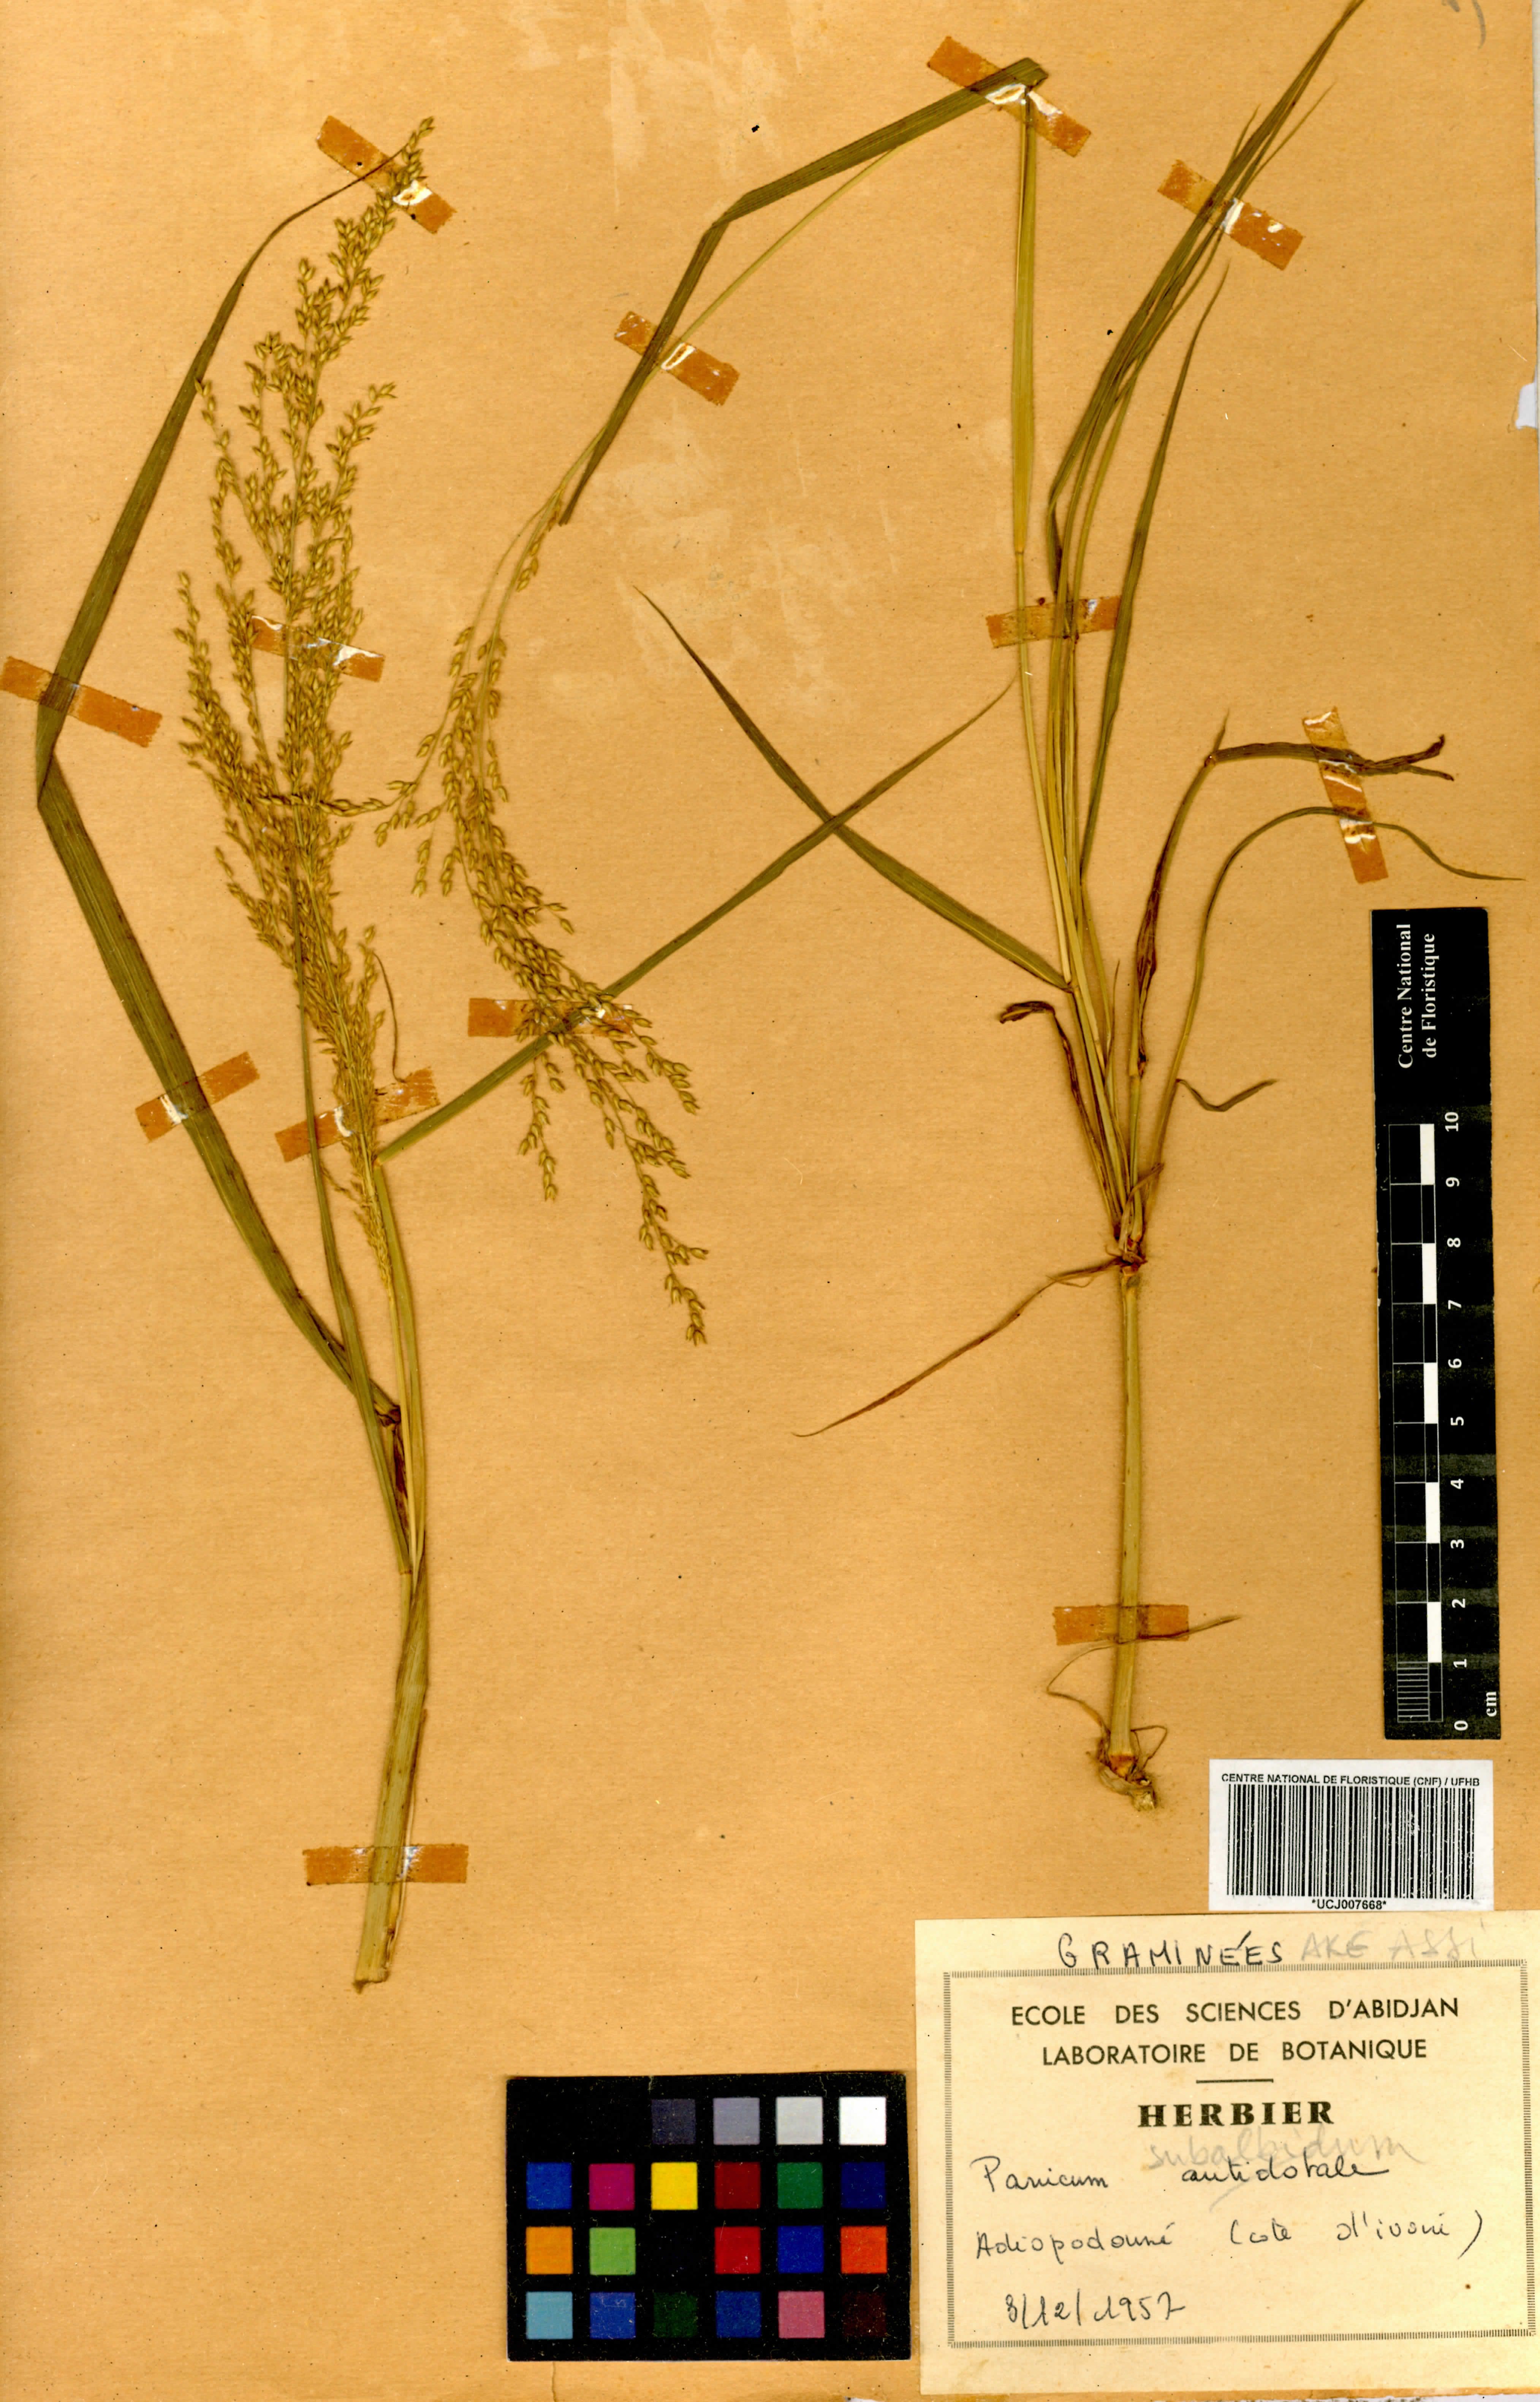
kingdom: Plantae
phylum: Tracheophyta
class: Liliopsida
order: Poales
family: Poaceae
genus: Panicum
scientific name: Panicum subalbidum
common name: Elbow buffalo grass
